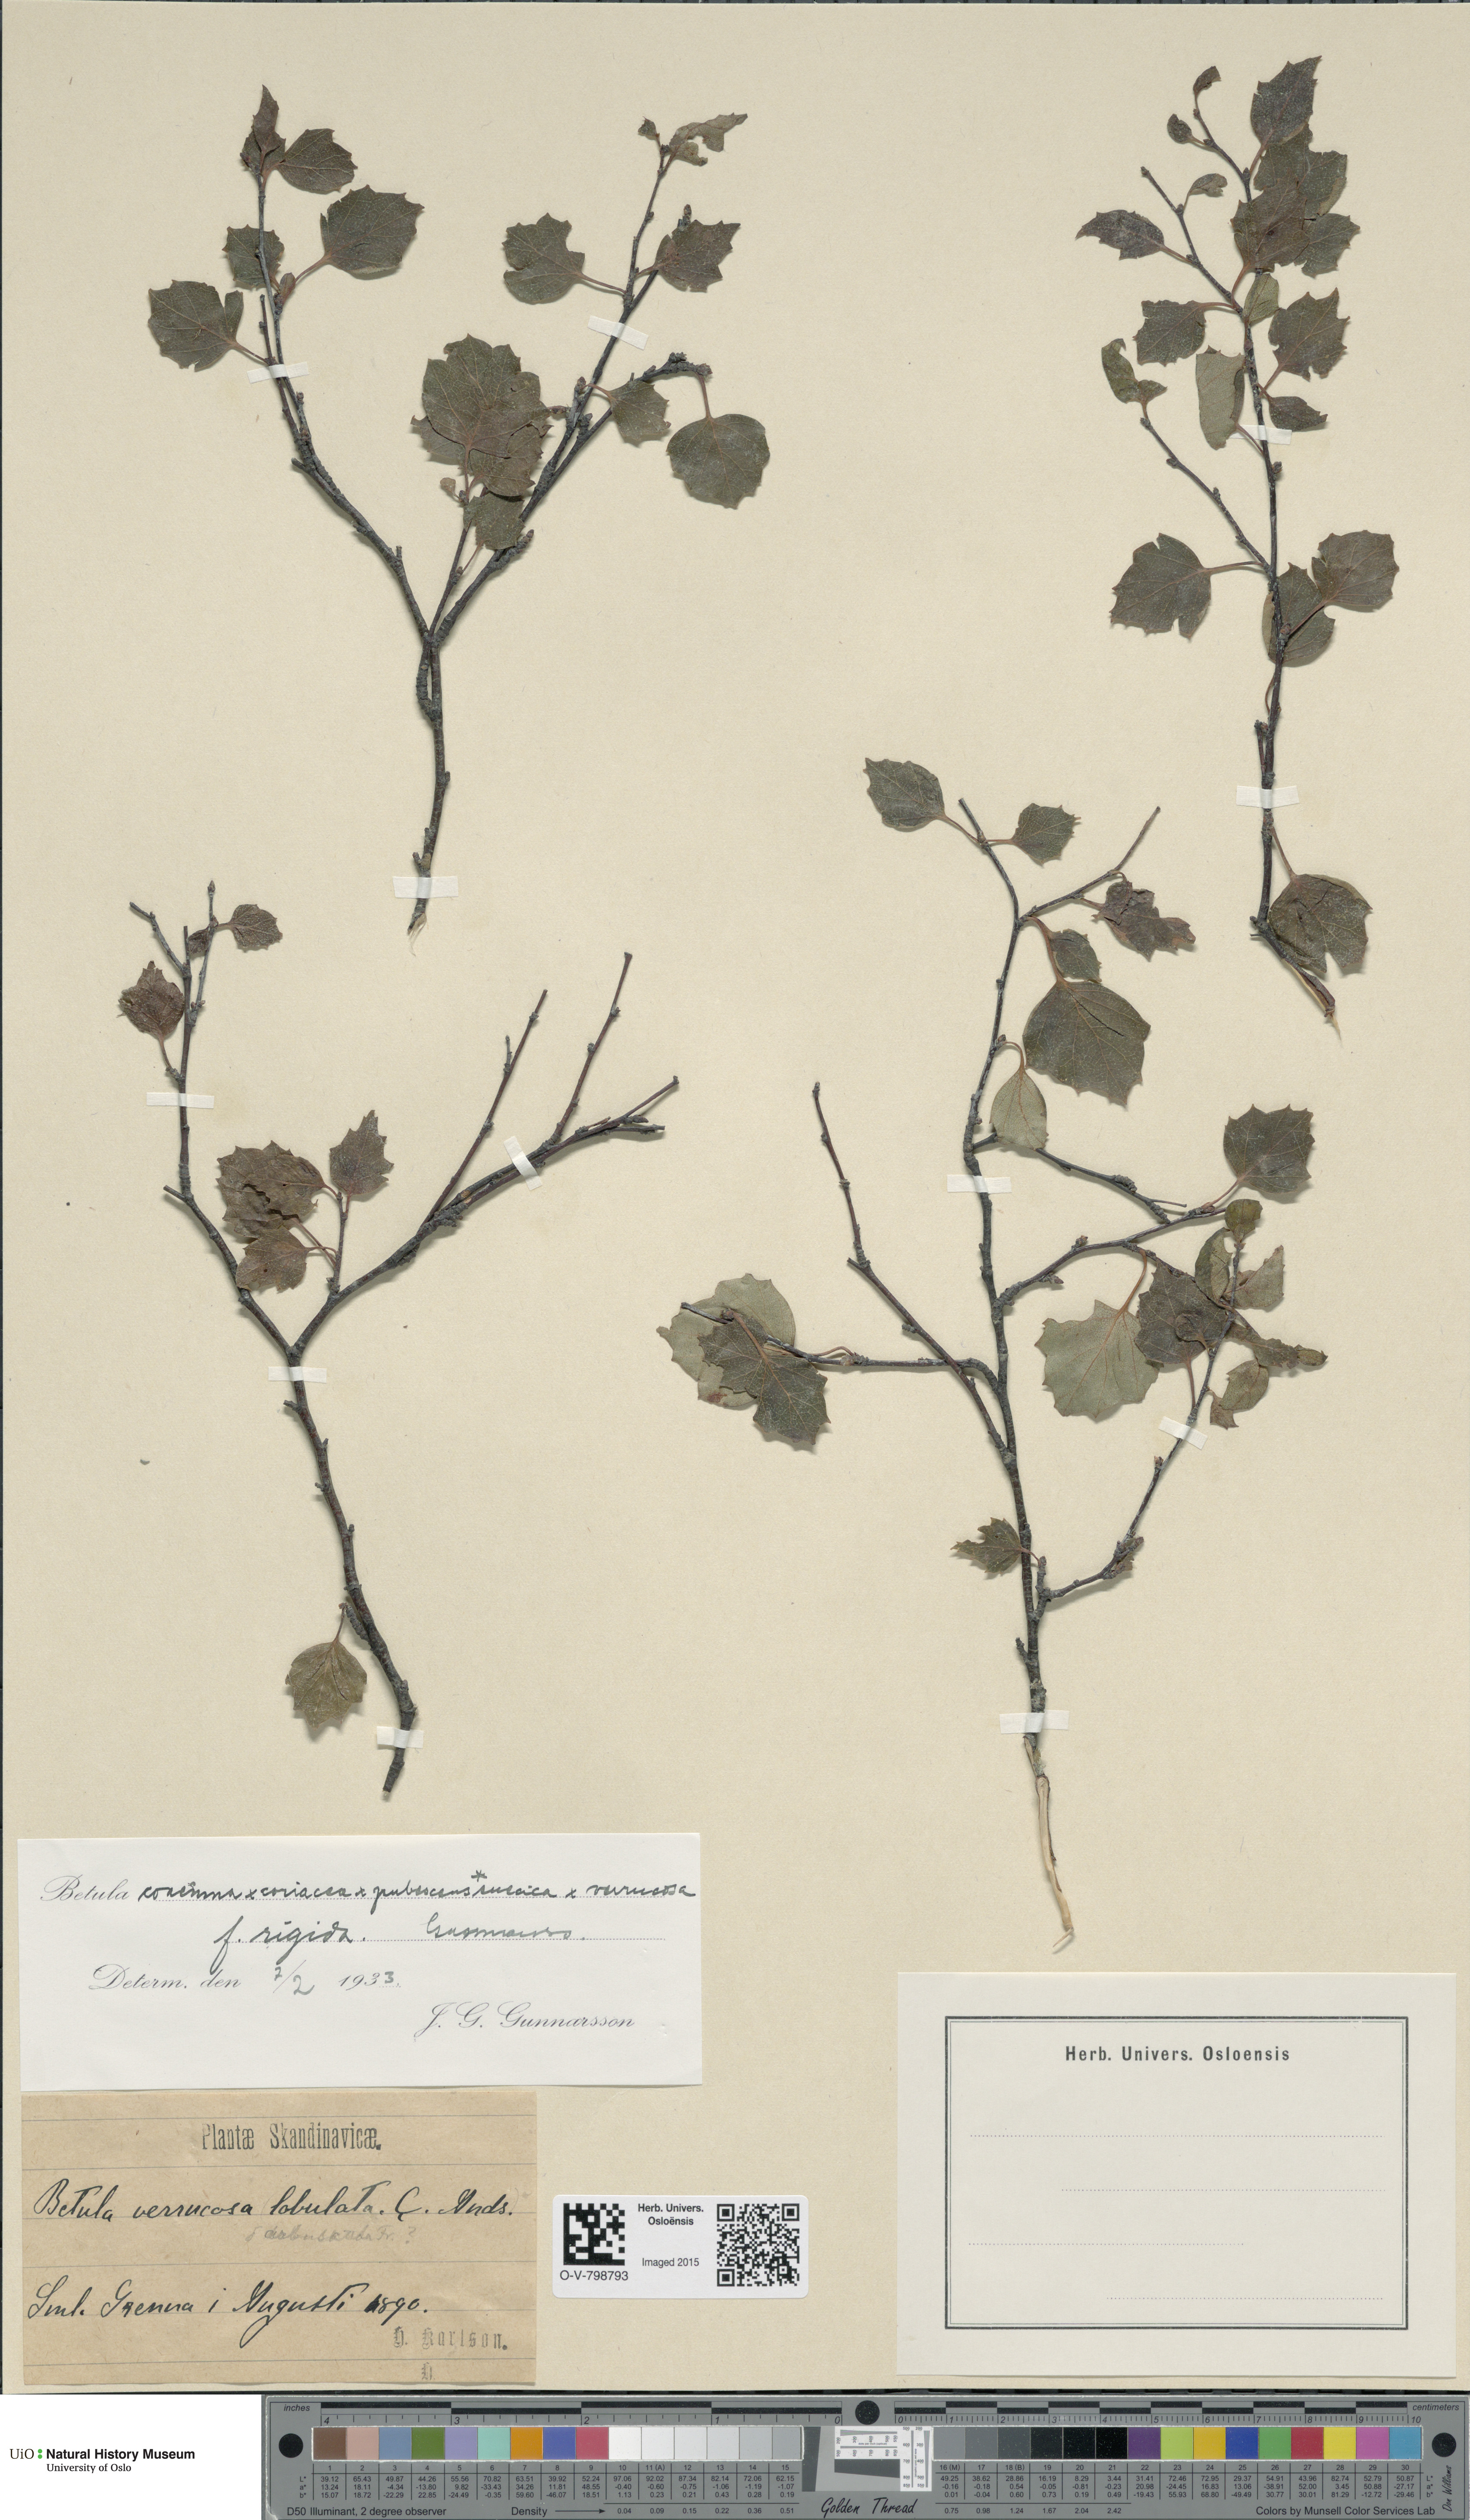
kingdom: Plantae
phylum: Tracheophyta
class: Magnoliopsida
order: Fagales
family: Betulaceae
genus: Betula
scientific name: Betula pubescens
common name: Downy birch
